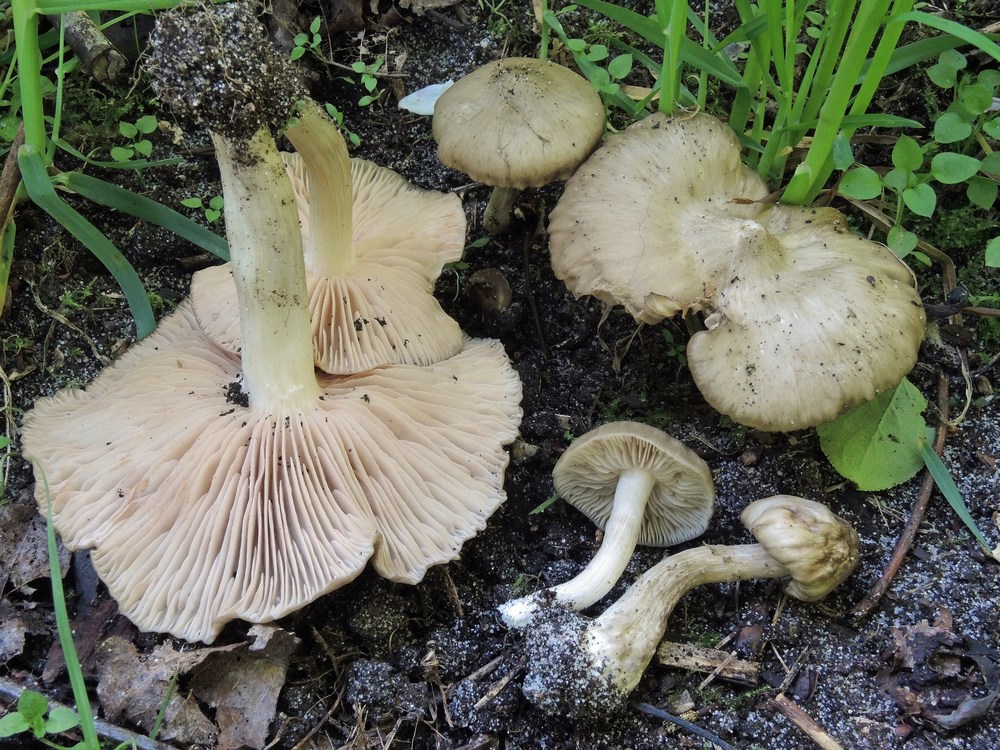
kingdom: Fungi
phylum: Basidiomycota
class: Agaricomycetes
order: Agaricales
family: Entolomataceae
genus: Entoloma
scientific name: Entoloma clypeatum
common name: flammet rødblad
